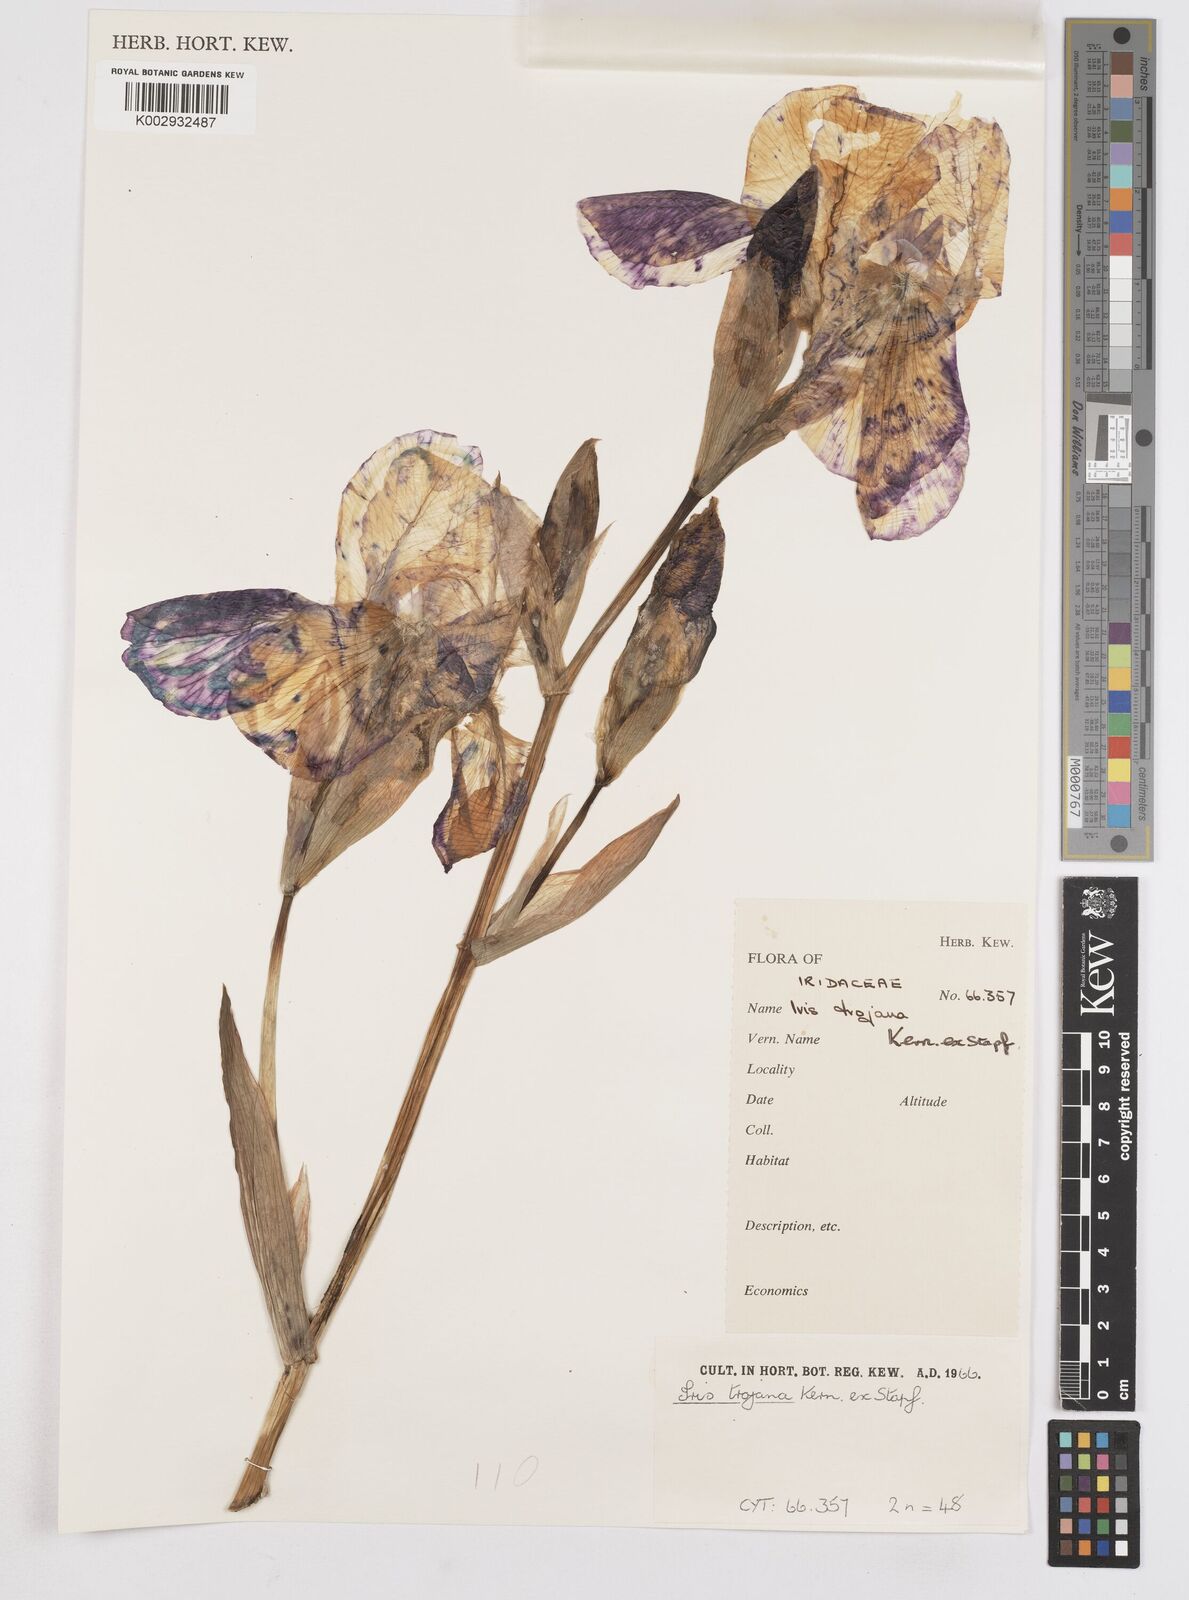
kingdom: Plantae
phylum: Tracheophyta
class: Liliopsida
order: Asparagales
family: Iridaceae
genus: Iris
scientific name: Iris
